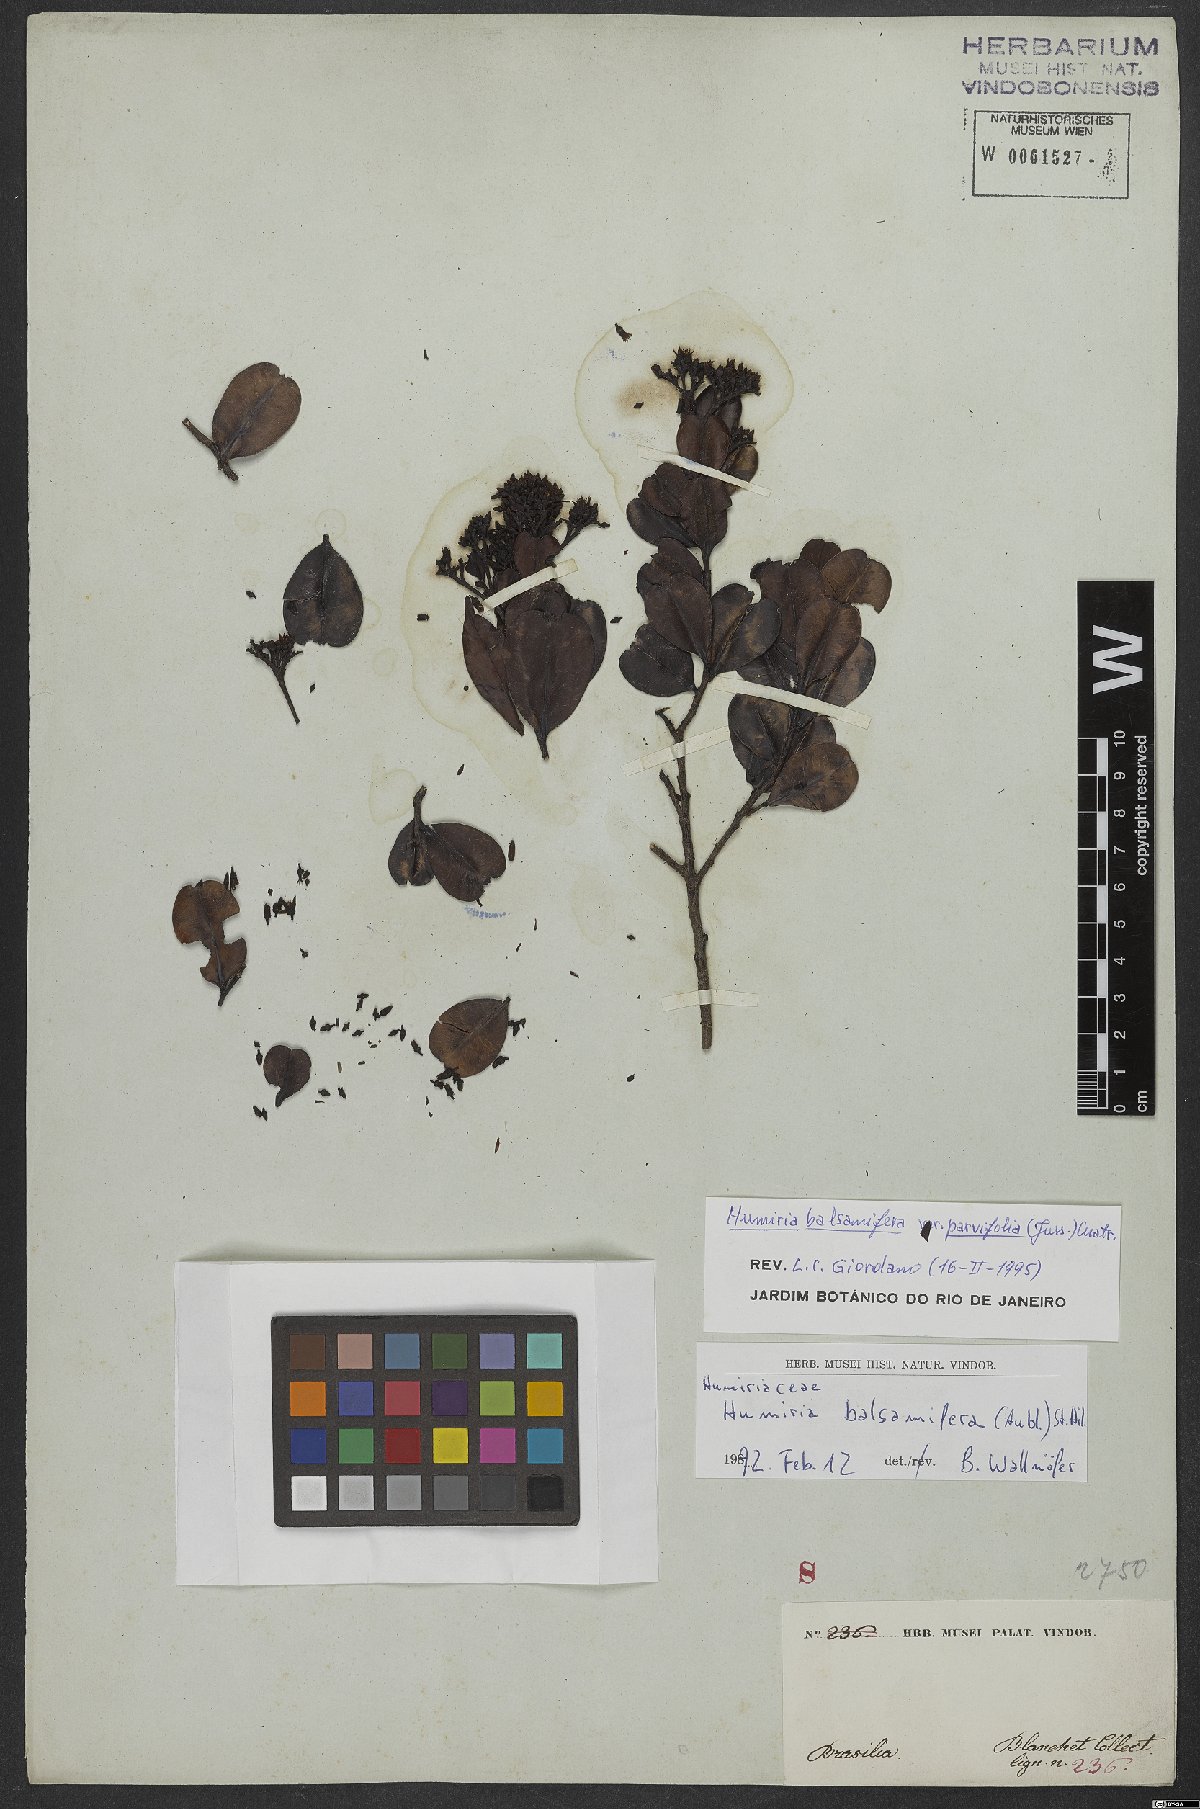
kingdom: Plantae
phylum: Tracheophyta
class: Magnoliopsida
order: Malpighiales
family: Humiriaceae
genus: Humiria
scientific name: Humiria parvifolia
